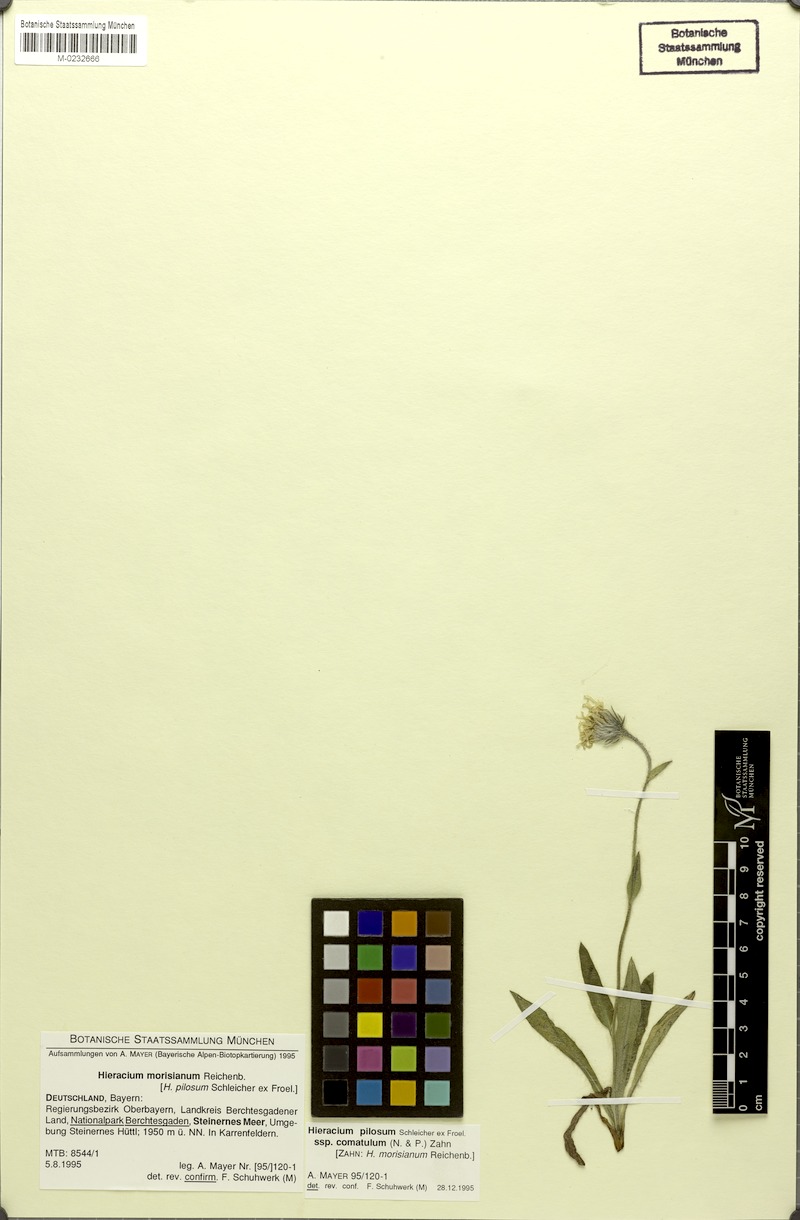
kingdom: Plantae
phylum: Tracheophyta
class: Magnoliopsida
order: Asterales
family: Asteraceae
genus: Hieracium
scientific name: Hieracium pilosum
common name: Fimbriate-pitted hawkweed
